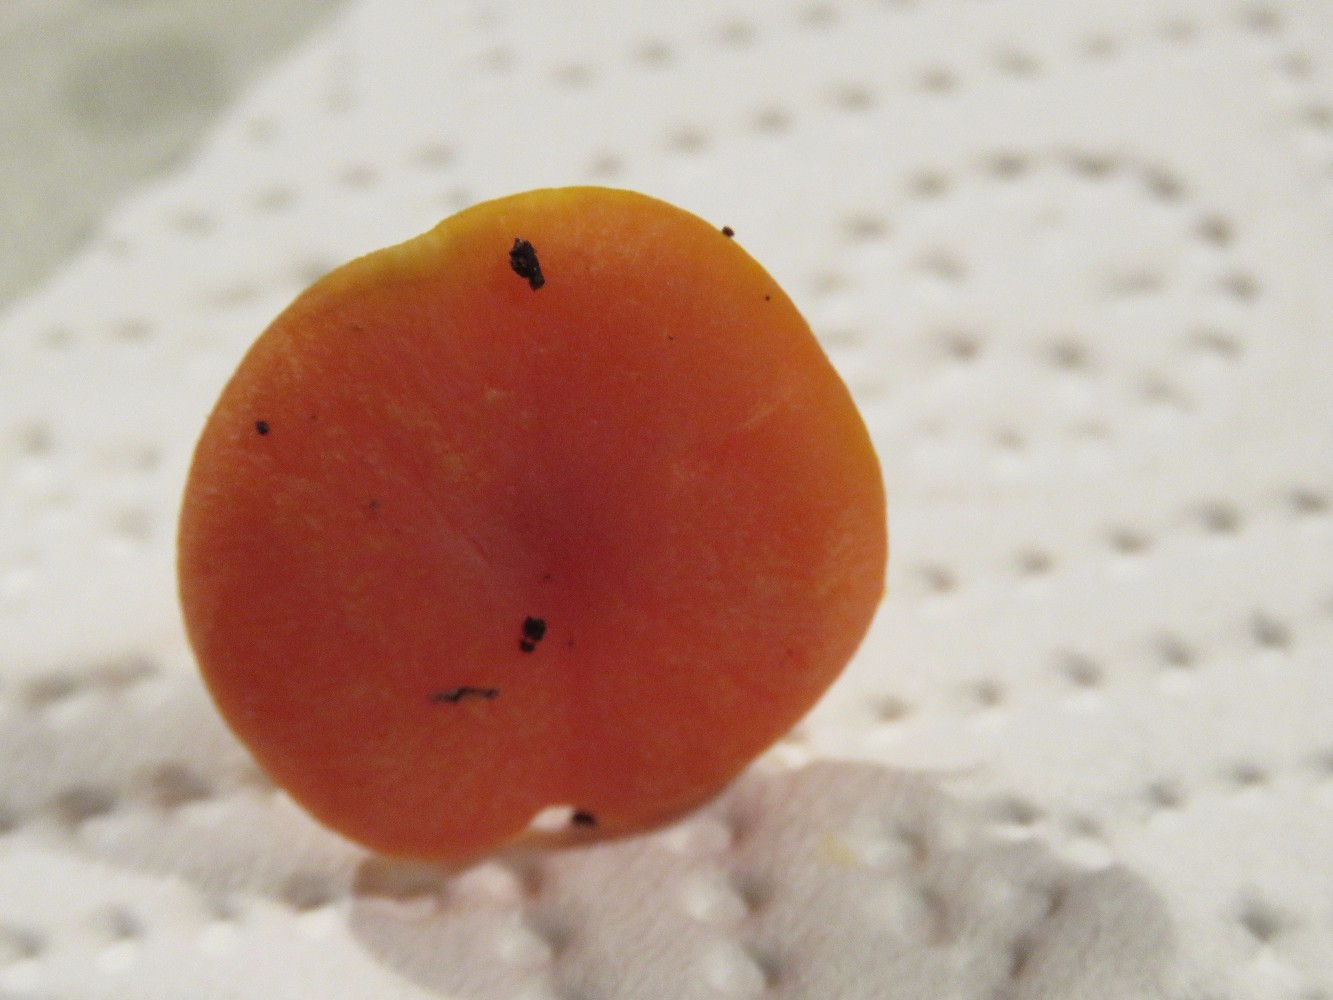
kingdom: Fungi
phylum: Basidiomycota
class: Agaricomycetes
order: Agaricales
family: Hygrophoraceae
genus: Hygrocybe
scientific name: Hygrocybe miniata
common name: mønje-vokshat
